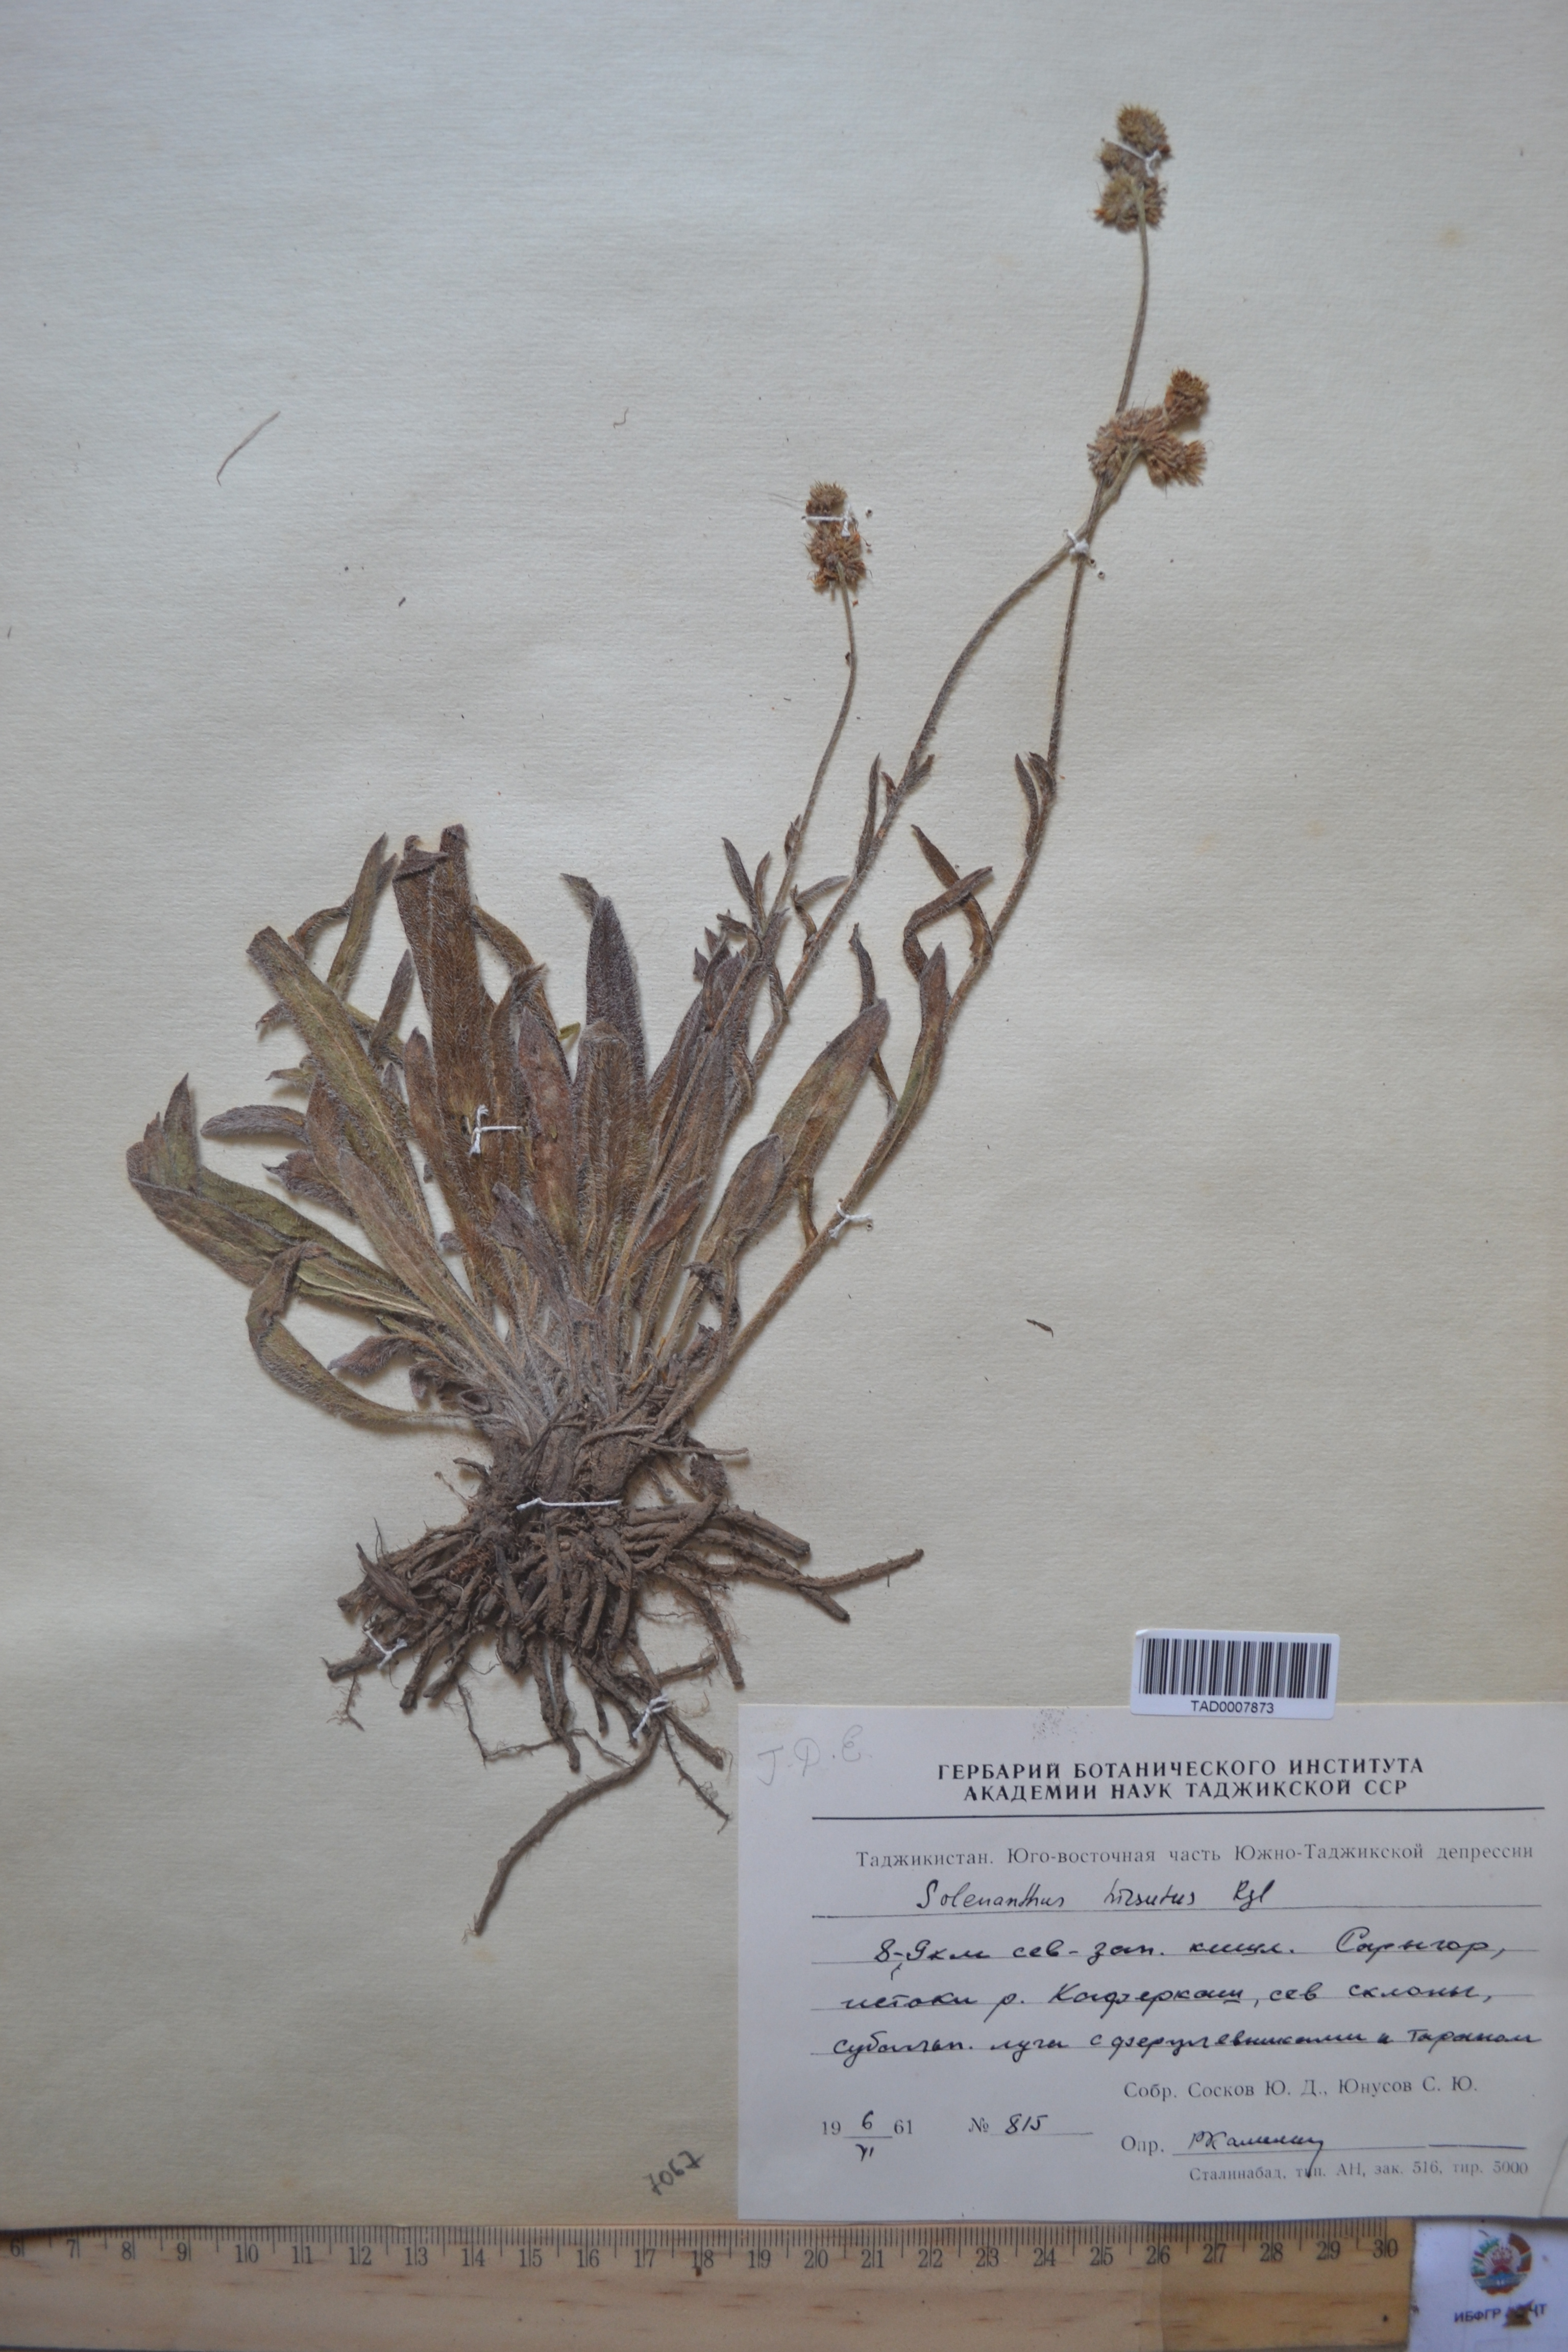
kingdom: Plantae
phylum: Tracheophyta
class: Magnoliopsida
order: Boraginales
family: Boraginaceae
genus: Solenanthus
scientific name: Solenanthus hirsutus
